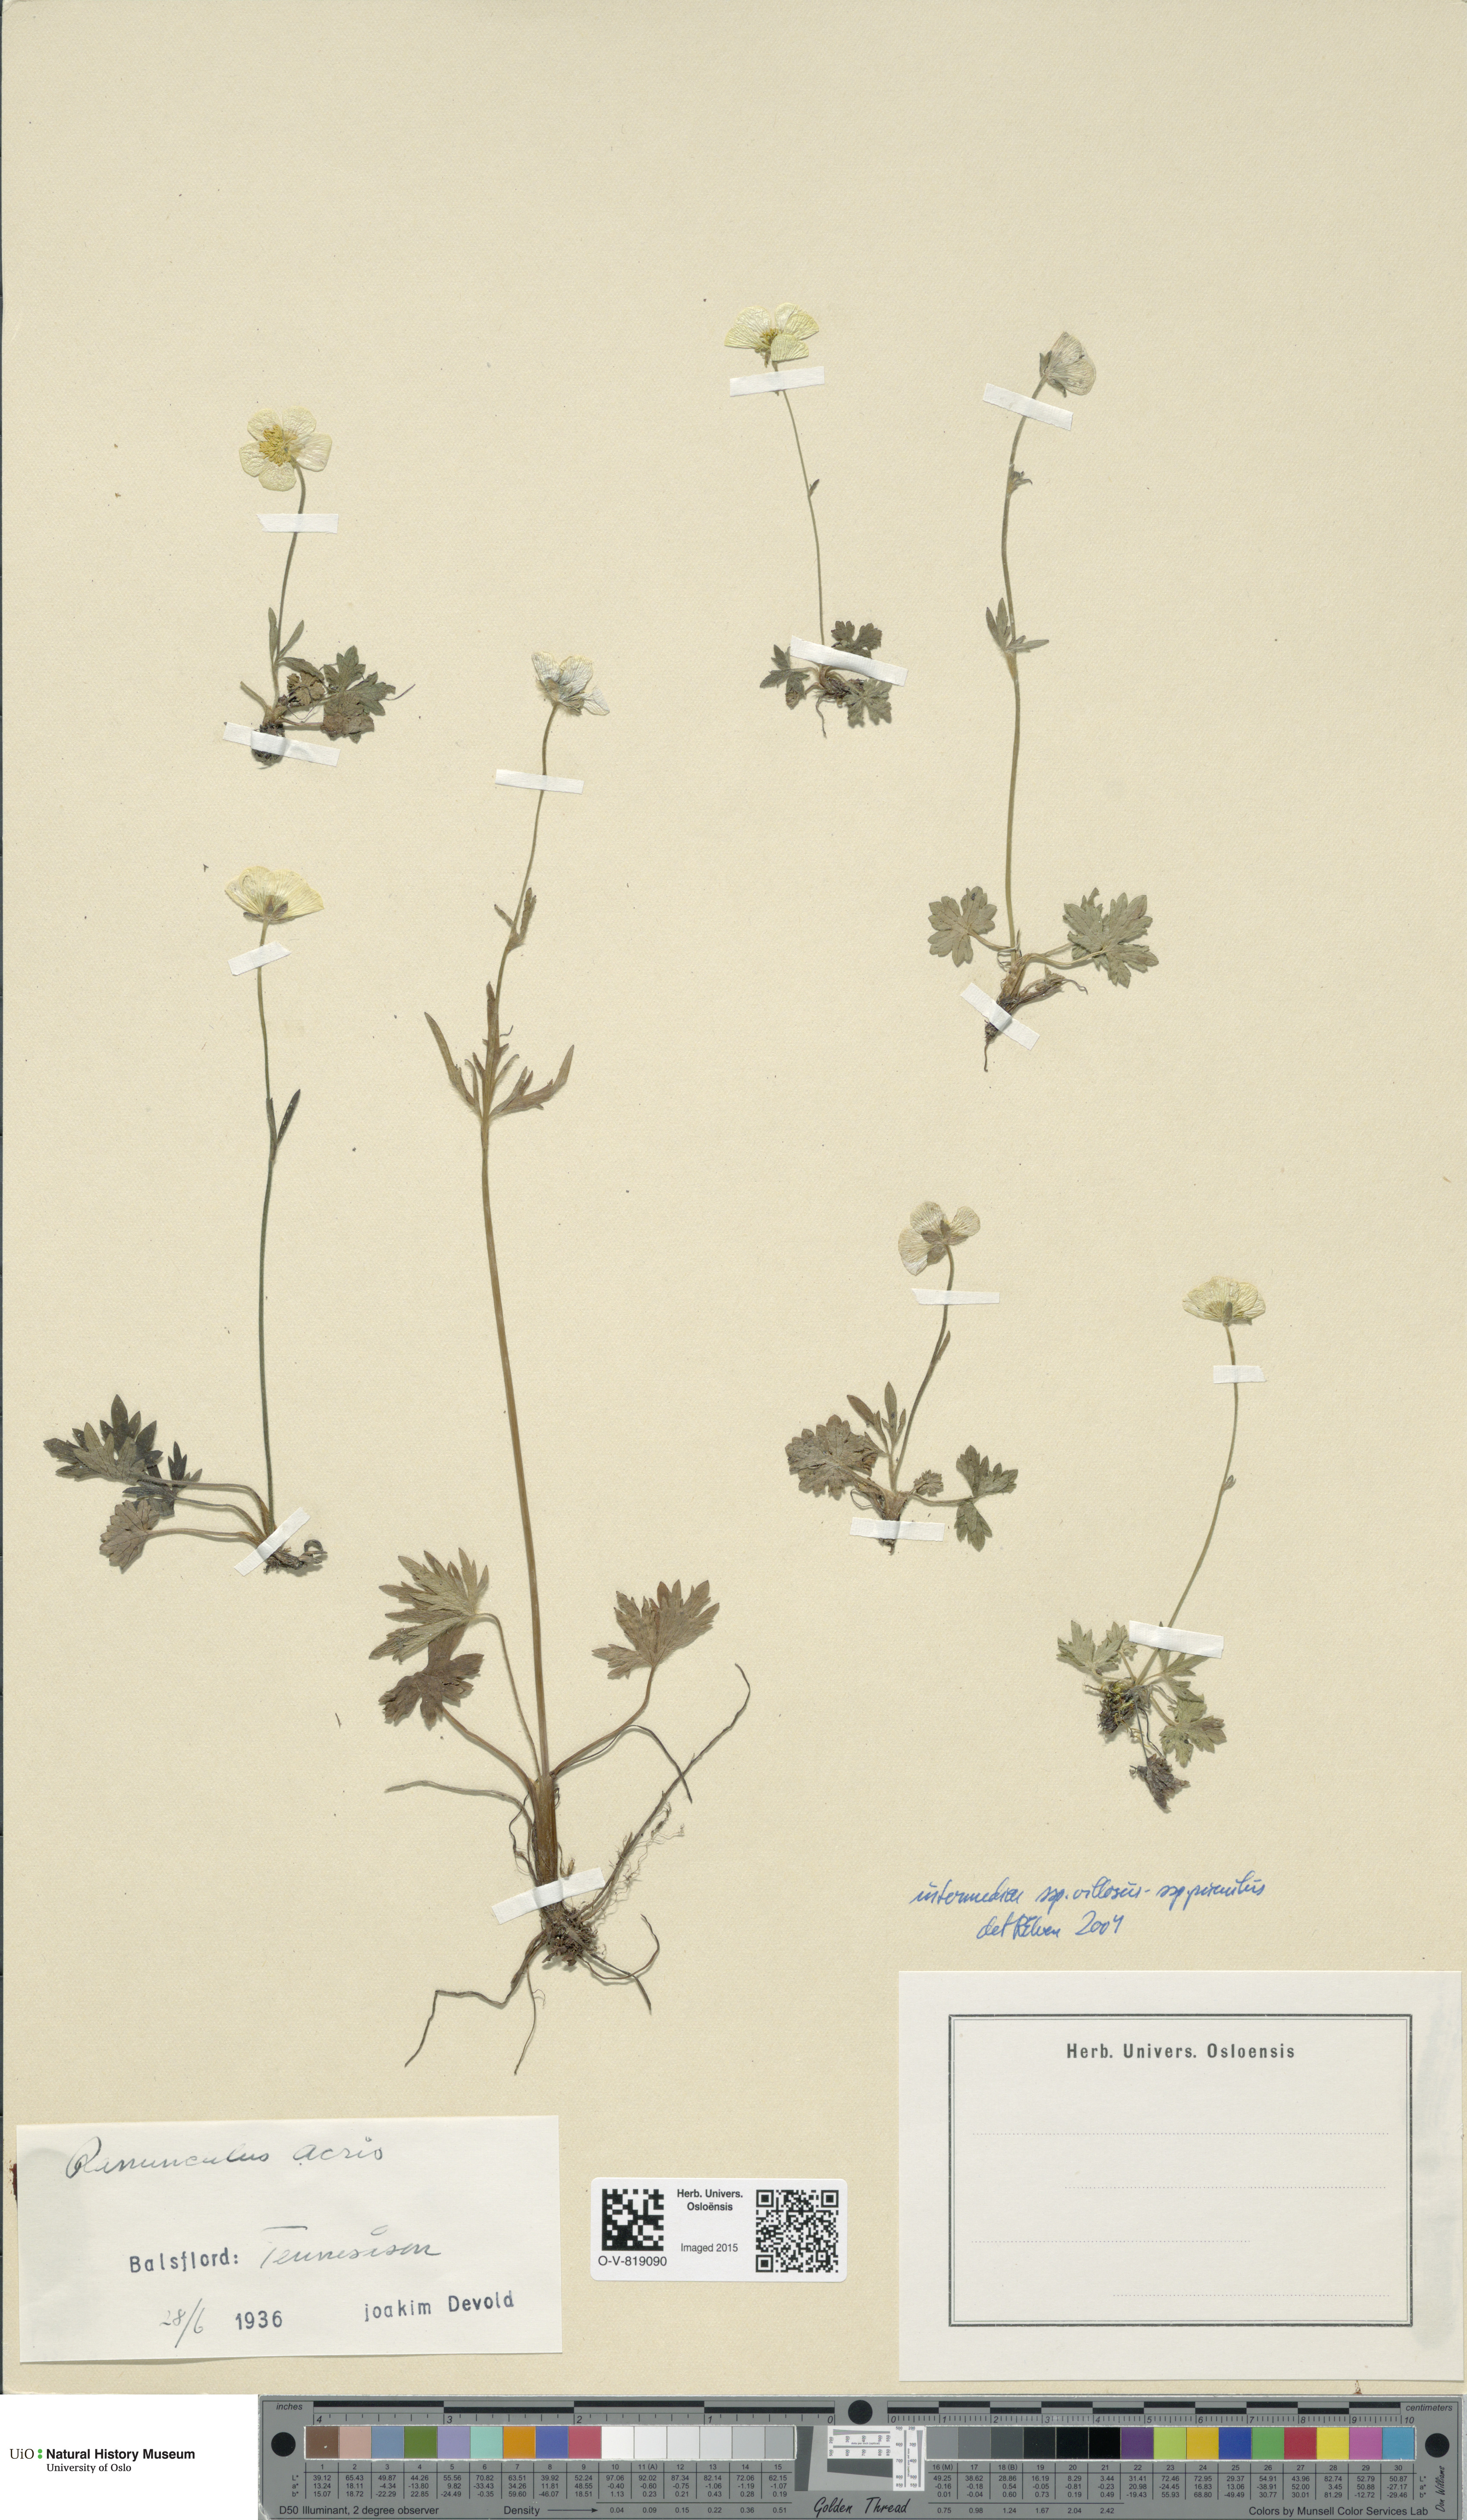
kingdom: Plantae
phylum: Tracheophyta
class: Magnoliopsida
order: Ranunculales
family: Ranunculaceae
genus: Ranunculus
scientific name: Ranunculus
